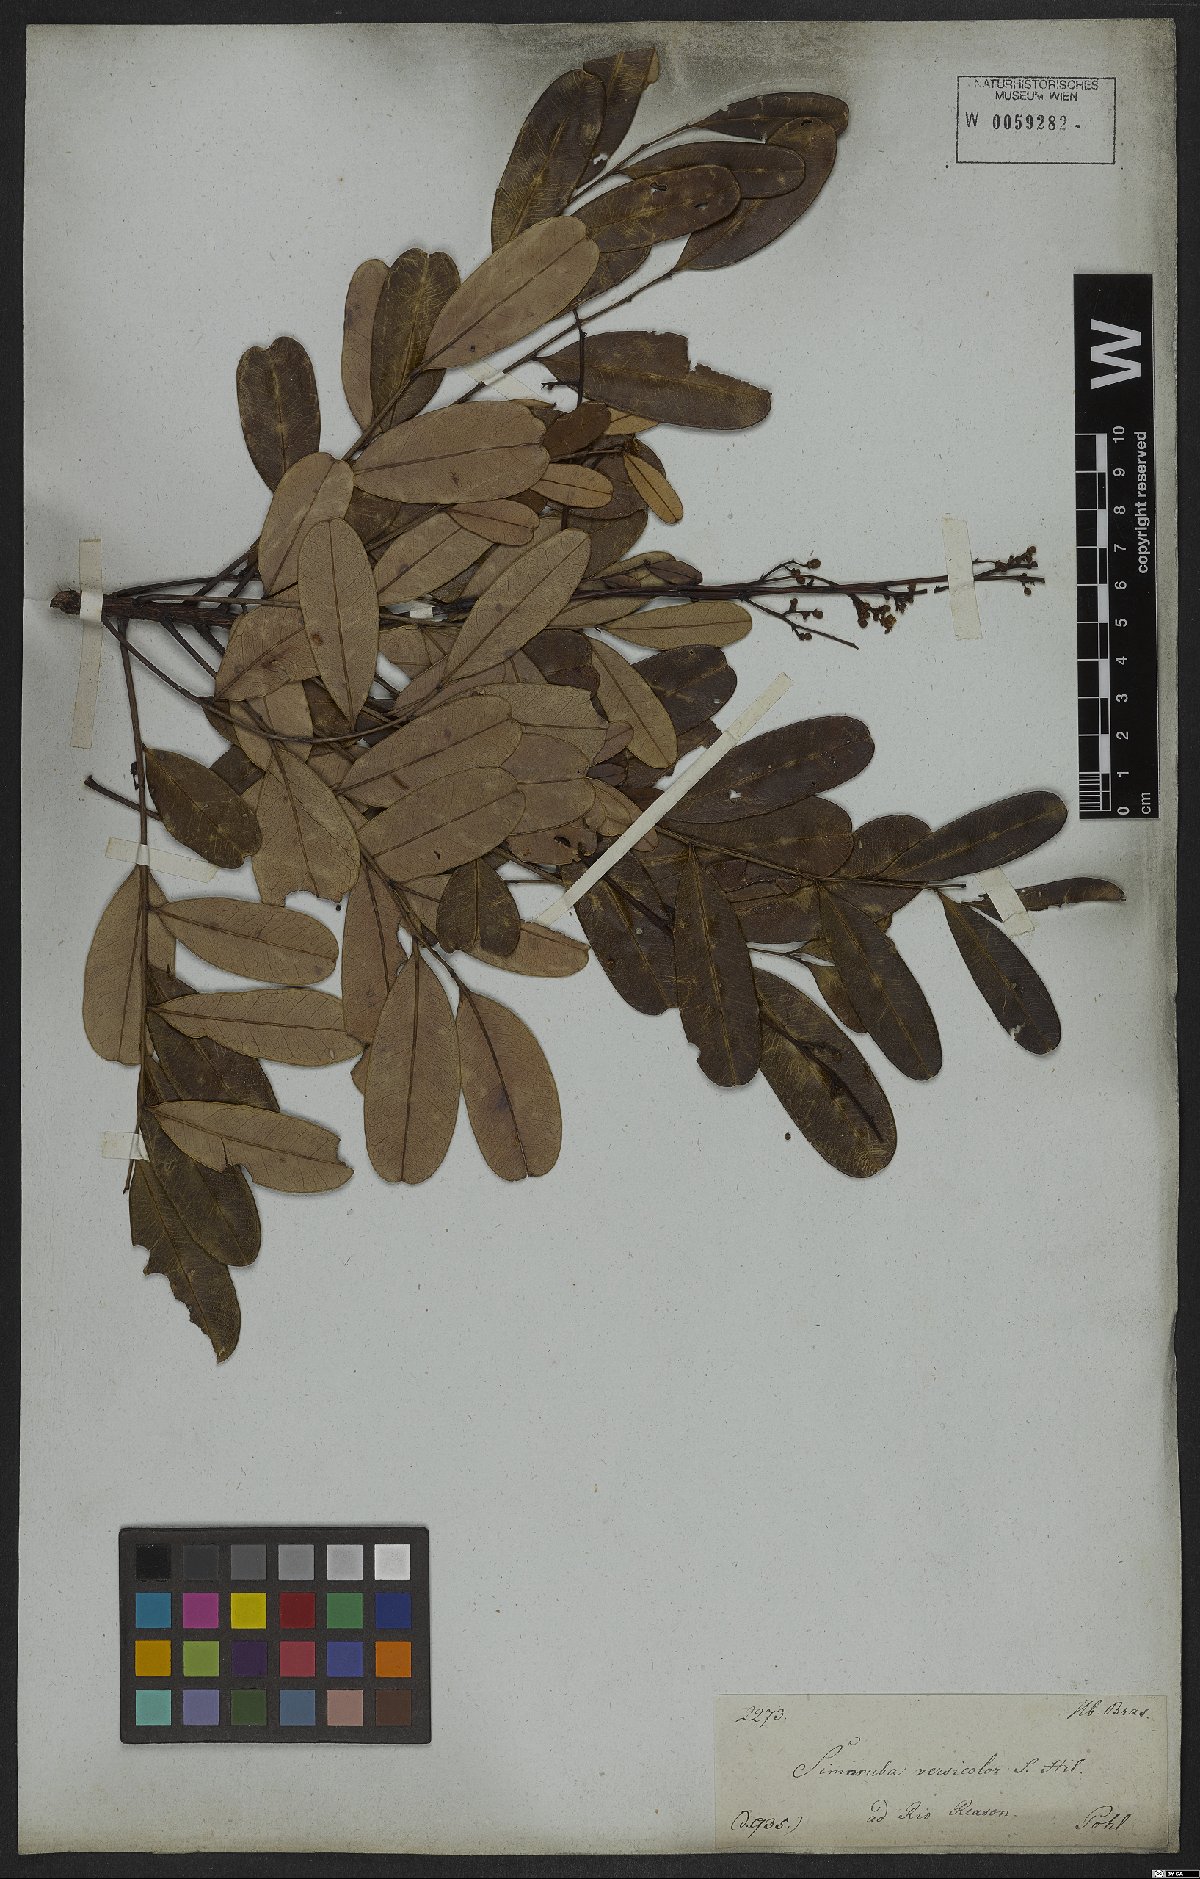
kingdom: Plantae
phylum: Tracheophyta
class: Magnoliopsida
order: Sapindales
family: Simaroubaceae
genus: Simarouba
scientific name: Simarouba versicolor
